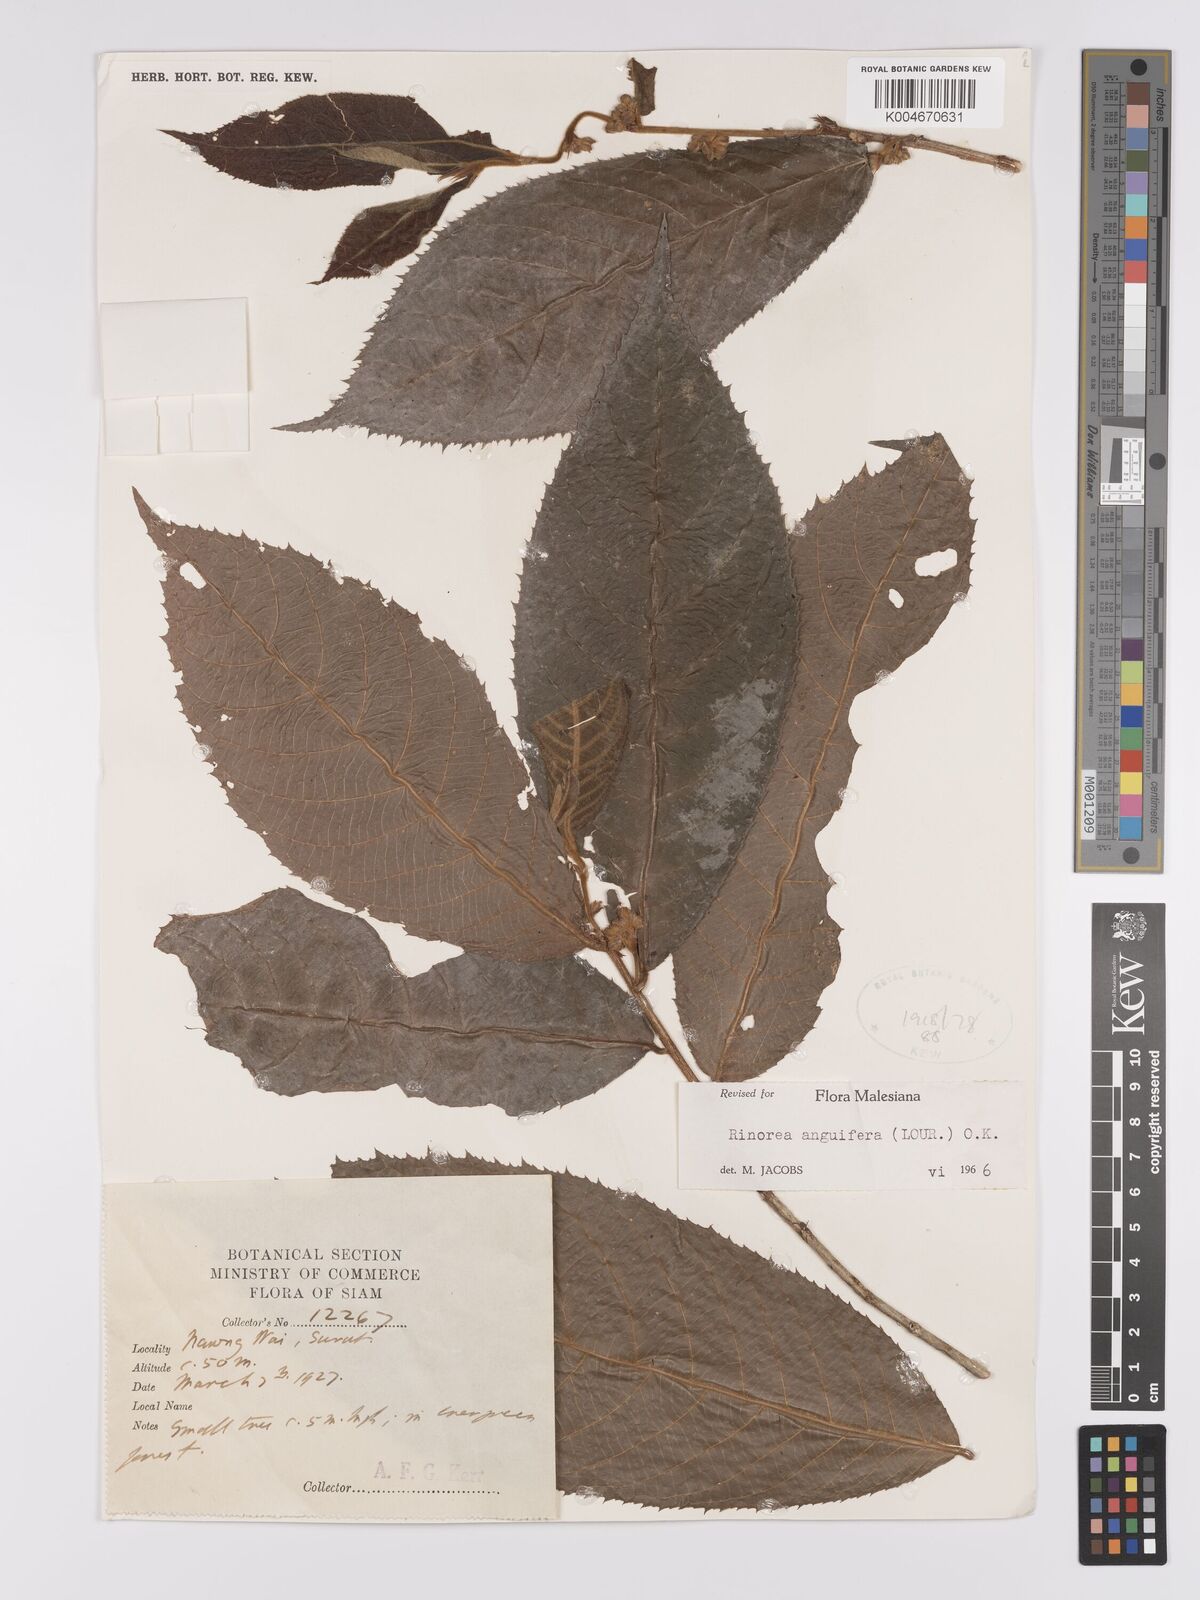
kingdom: Plantae
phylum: Tracheophyta
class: Magnoliopsida
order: Malpighiales
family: Violaceae
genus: Rinorea
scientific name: Rinorea anguifera
